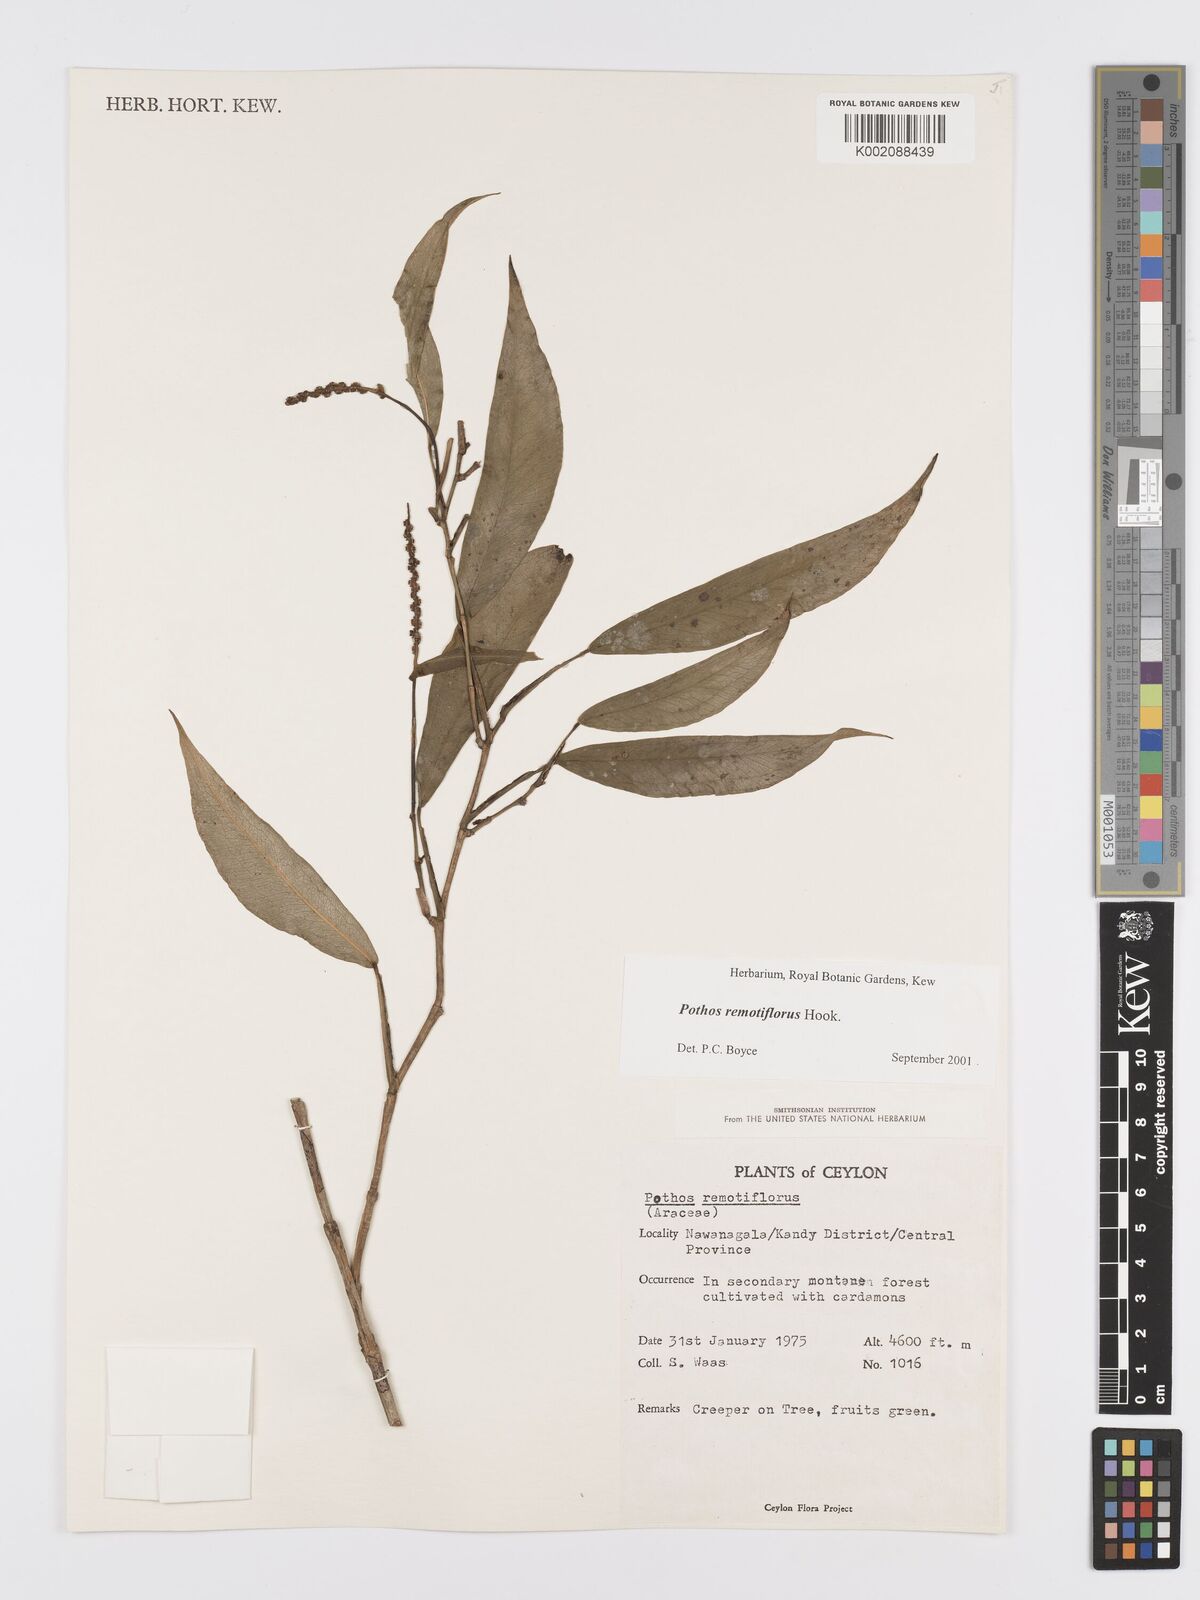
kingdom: Plantae
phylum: Tracheophyta
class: Liliopsida
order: Alismatales
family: Araceae
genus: Pothos
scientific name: Pothos remotiflorus
